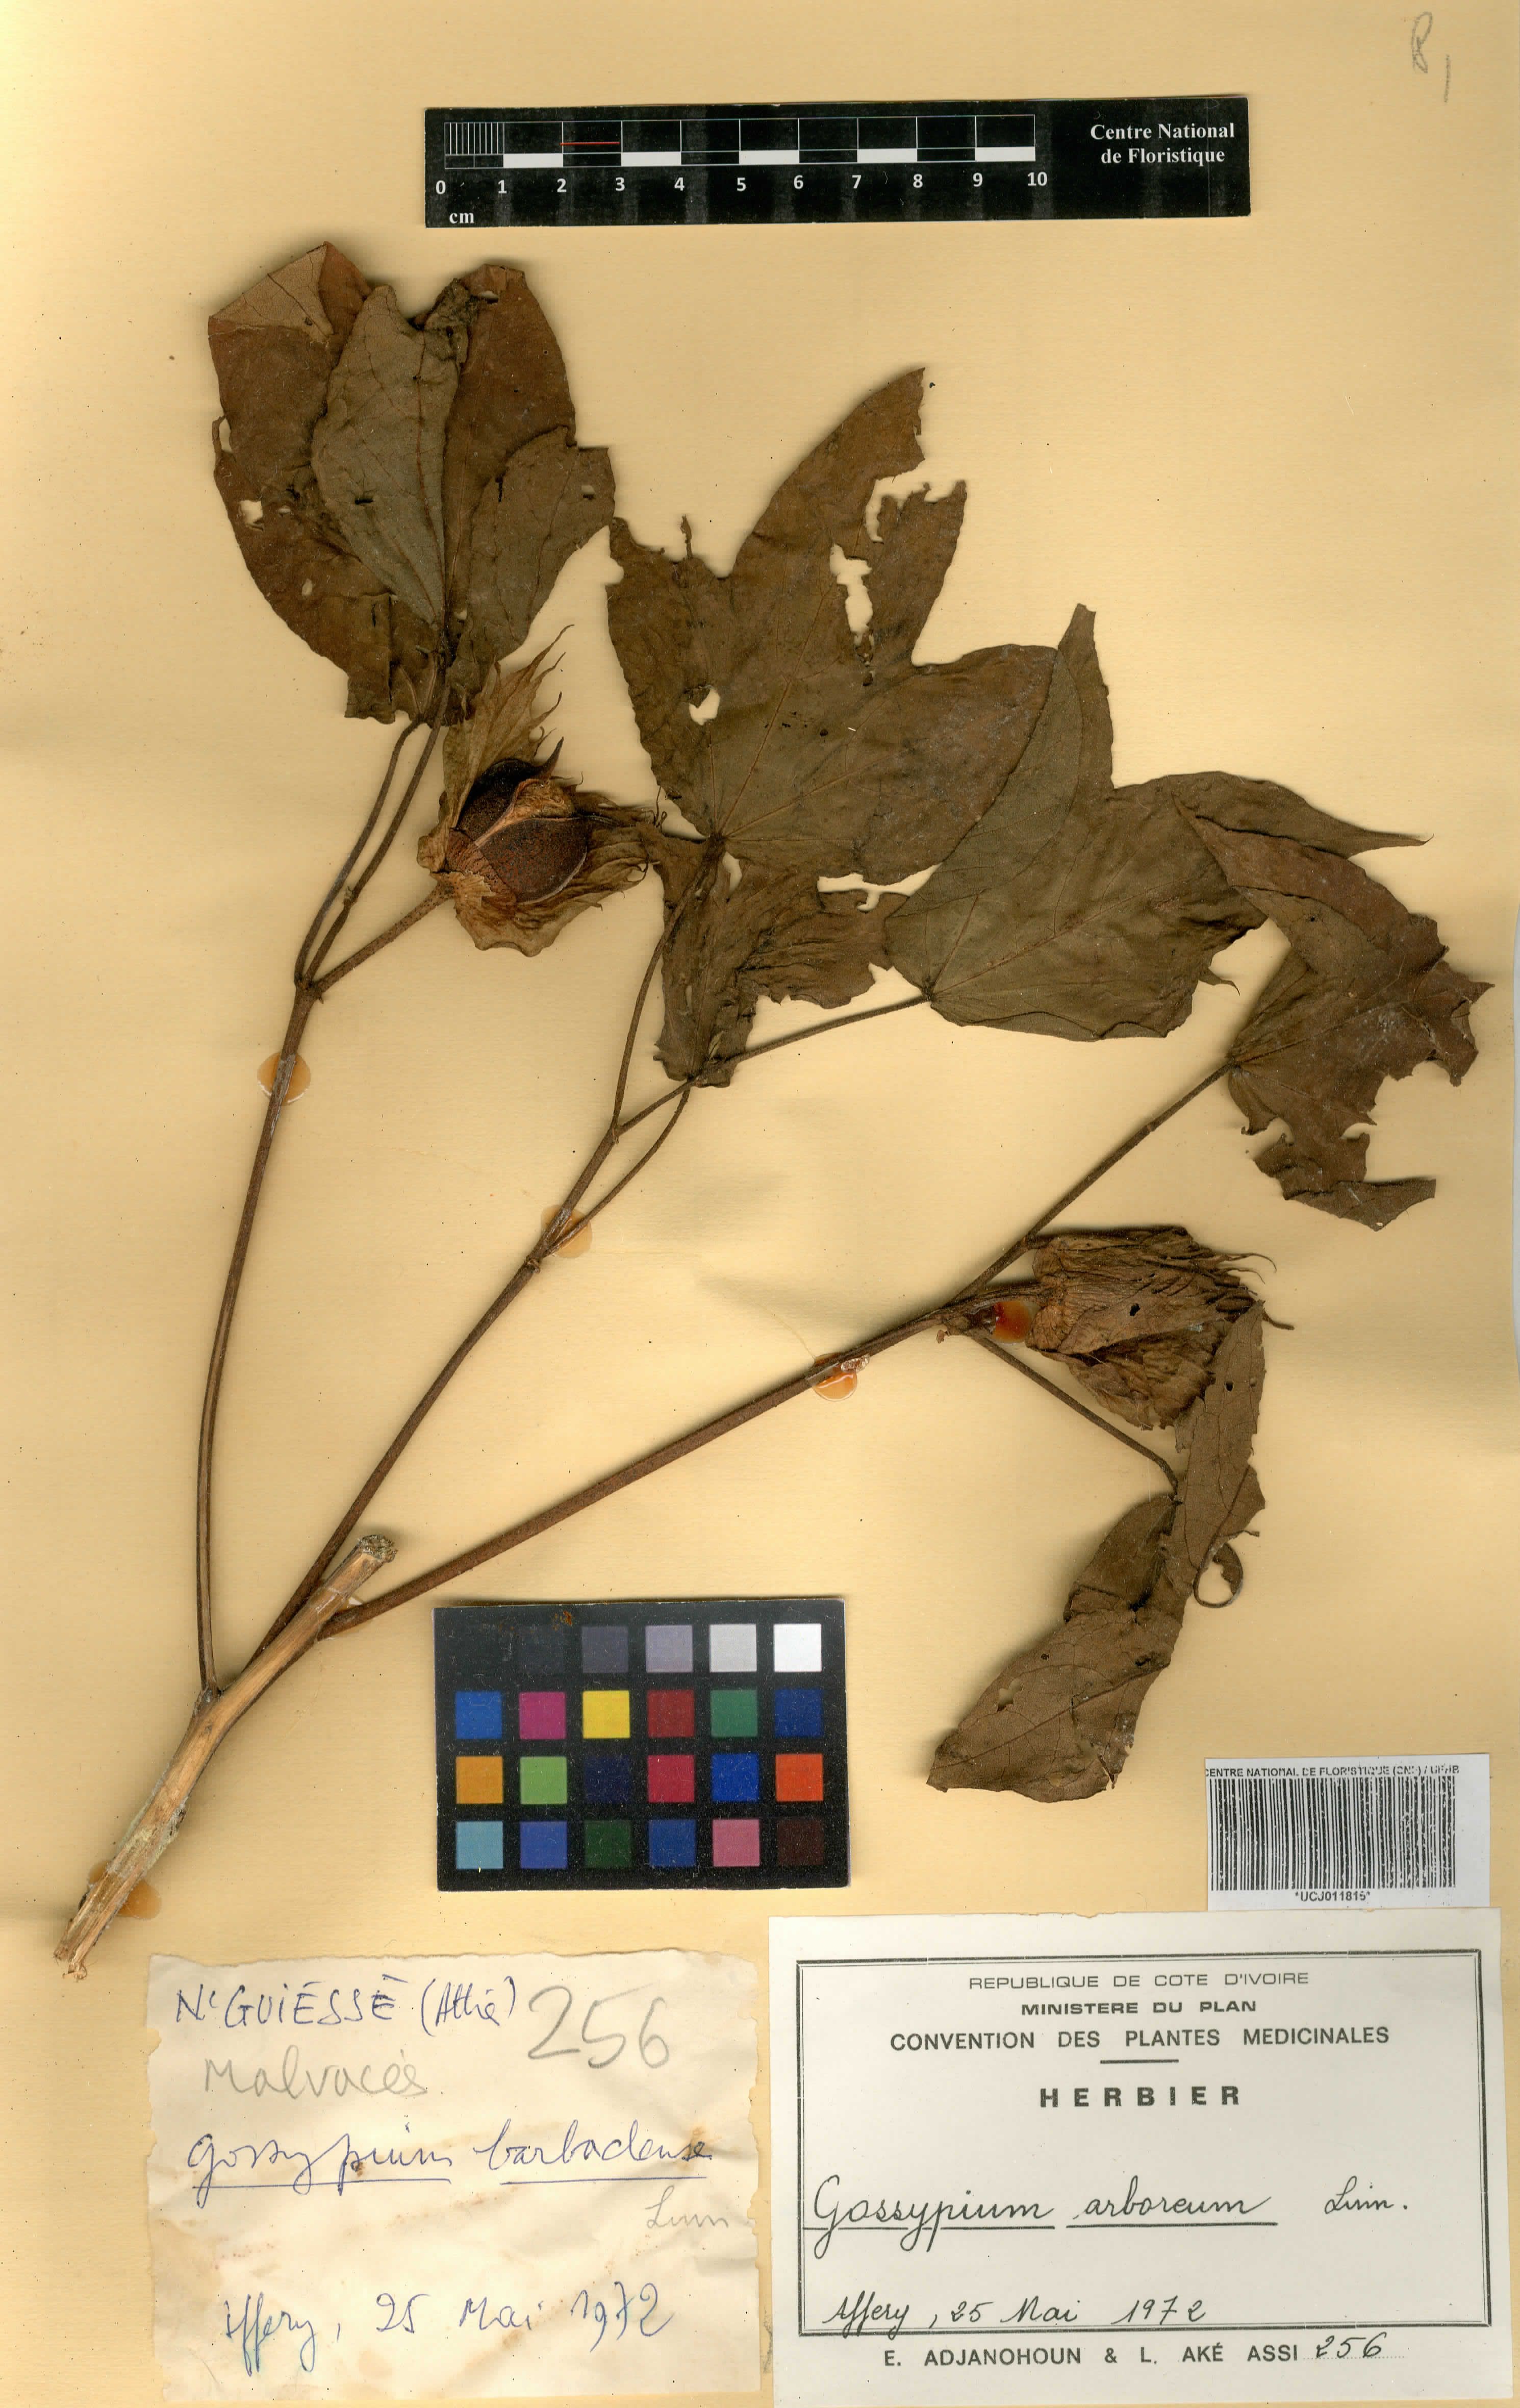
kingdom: Plantae
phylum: Tracheophyta
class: Magnoliopsida
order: Malvales
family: Malvaceae
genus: Gossypium
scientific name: Gossypium arboreum
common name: Tree cotton
